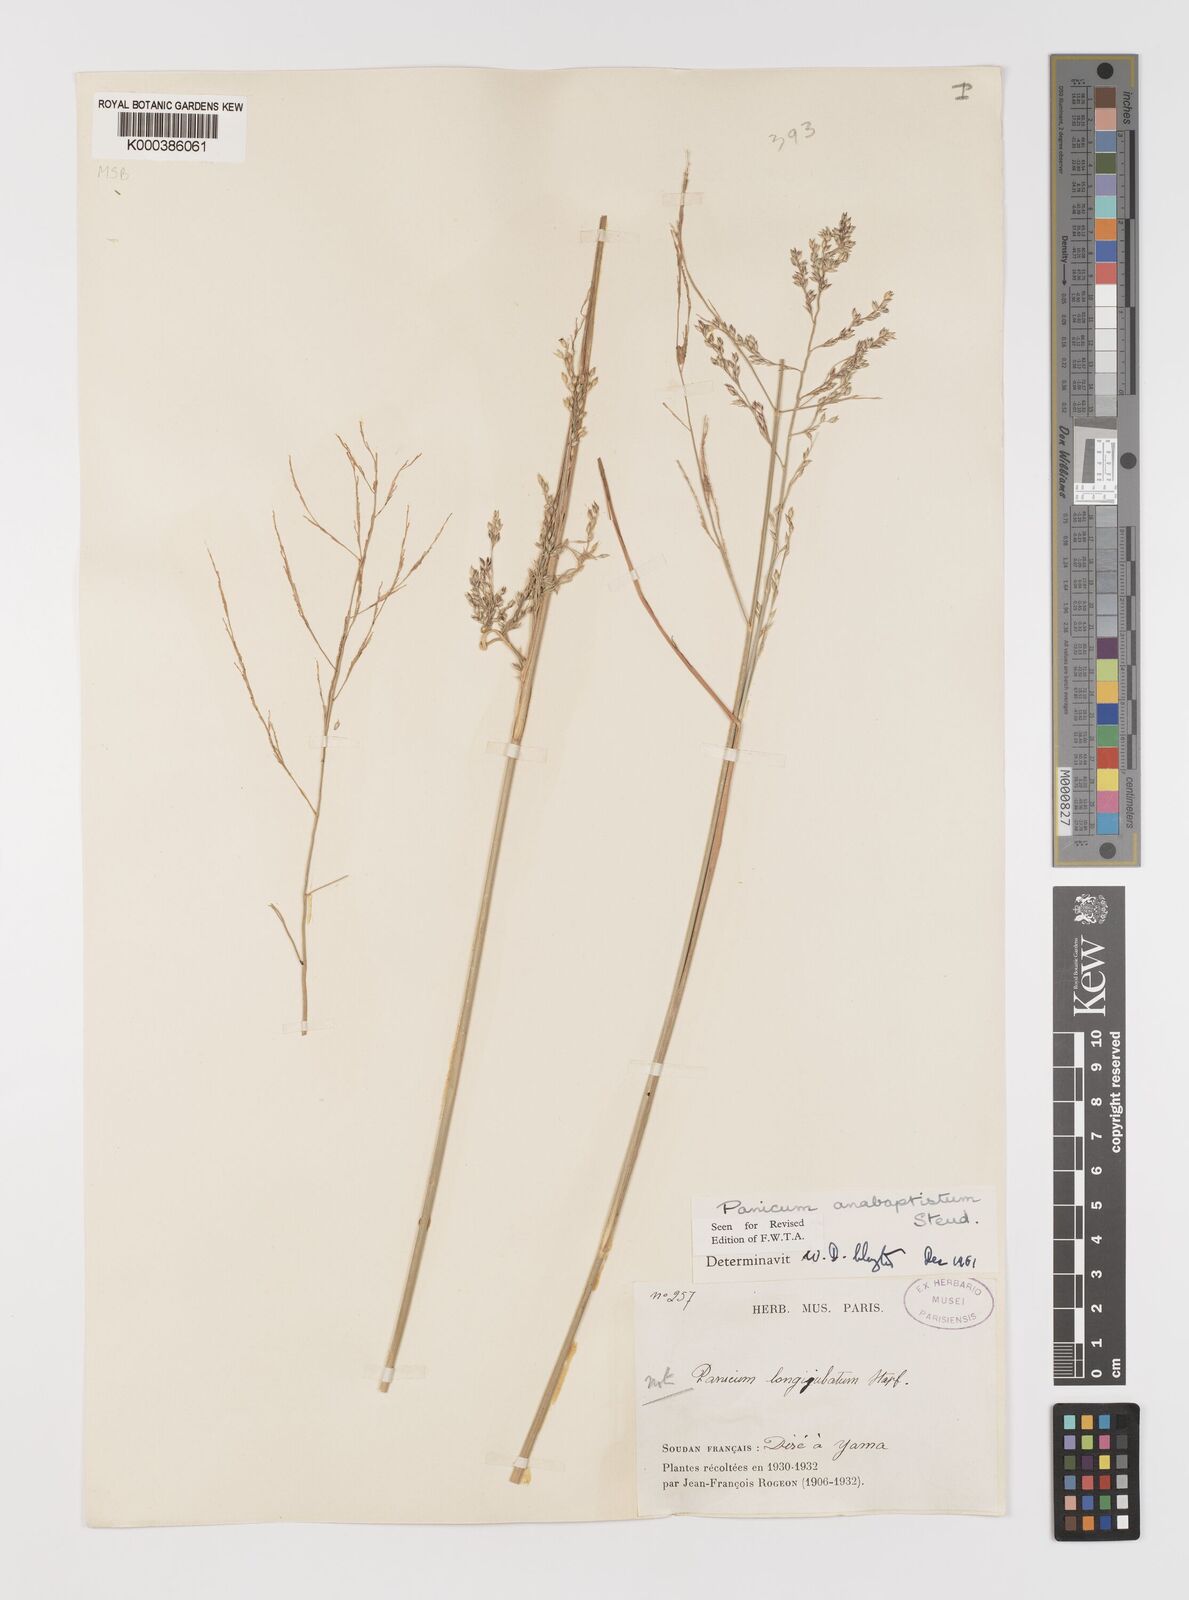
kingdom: Plantae
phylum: Tracheophyta
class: Liliopsida
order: Poales
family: Poaceae
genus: Panicum
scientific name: Panicum anabaptistum
